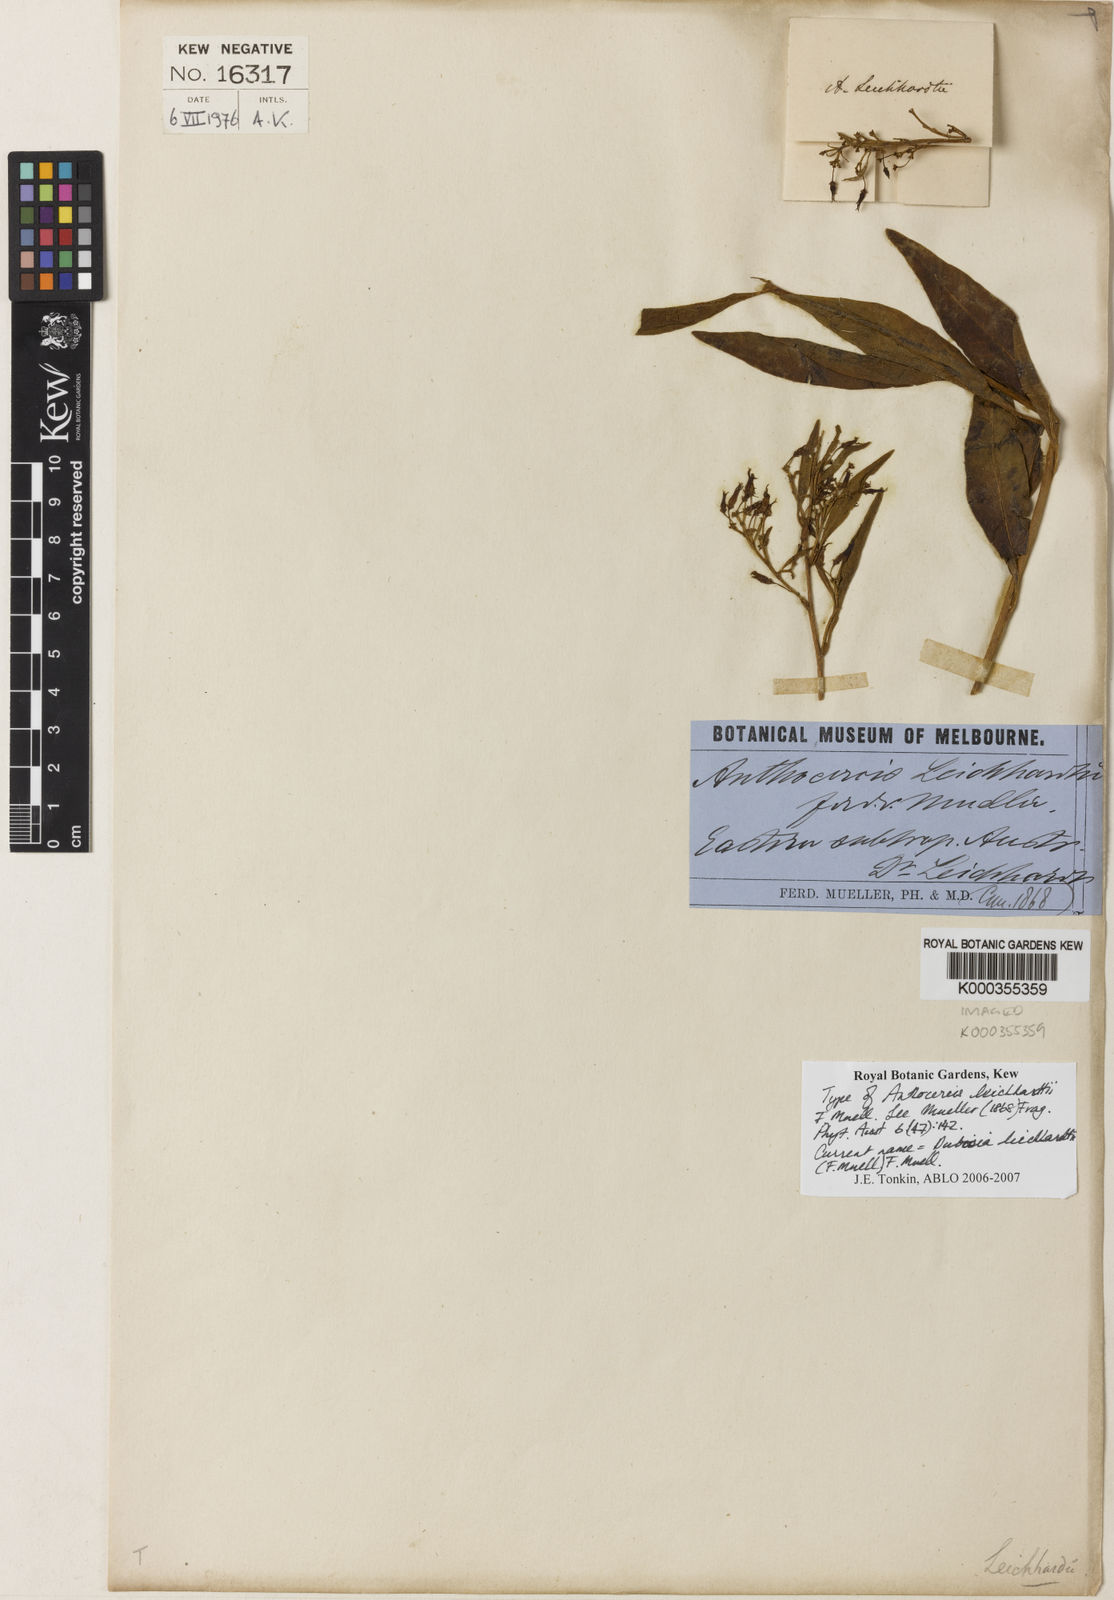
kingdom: Plantae
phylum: Tracheophyta
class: Magnoliopsida
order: Solanales
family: Solanaceae
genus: Duboisia
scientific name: Duboisia leichhardtii
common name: Queensland duboisia
